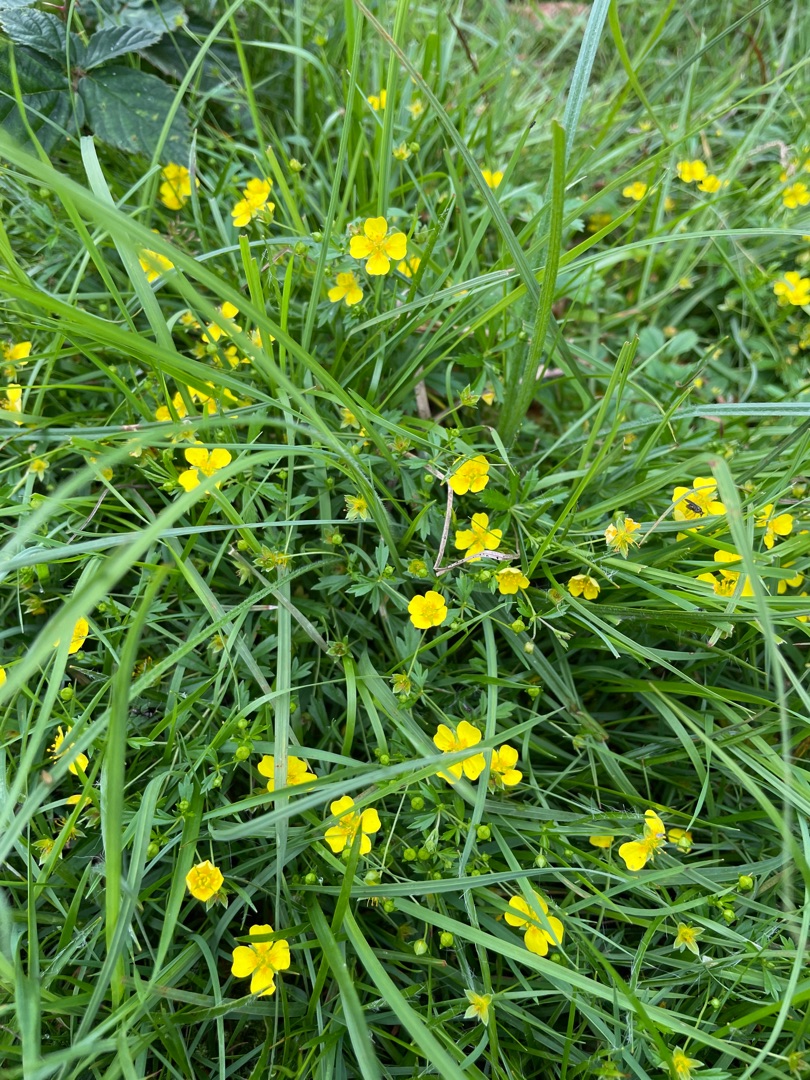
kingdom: Plantae
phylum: Tracheophyta
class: Magnoliopsida
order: Rosales
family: Rosaceae
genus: Potentilla
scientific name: Potentilla erecta
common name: Tormentil
